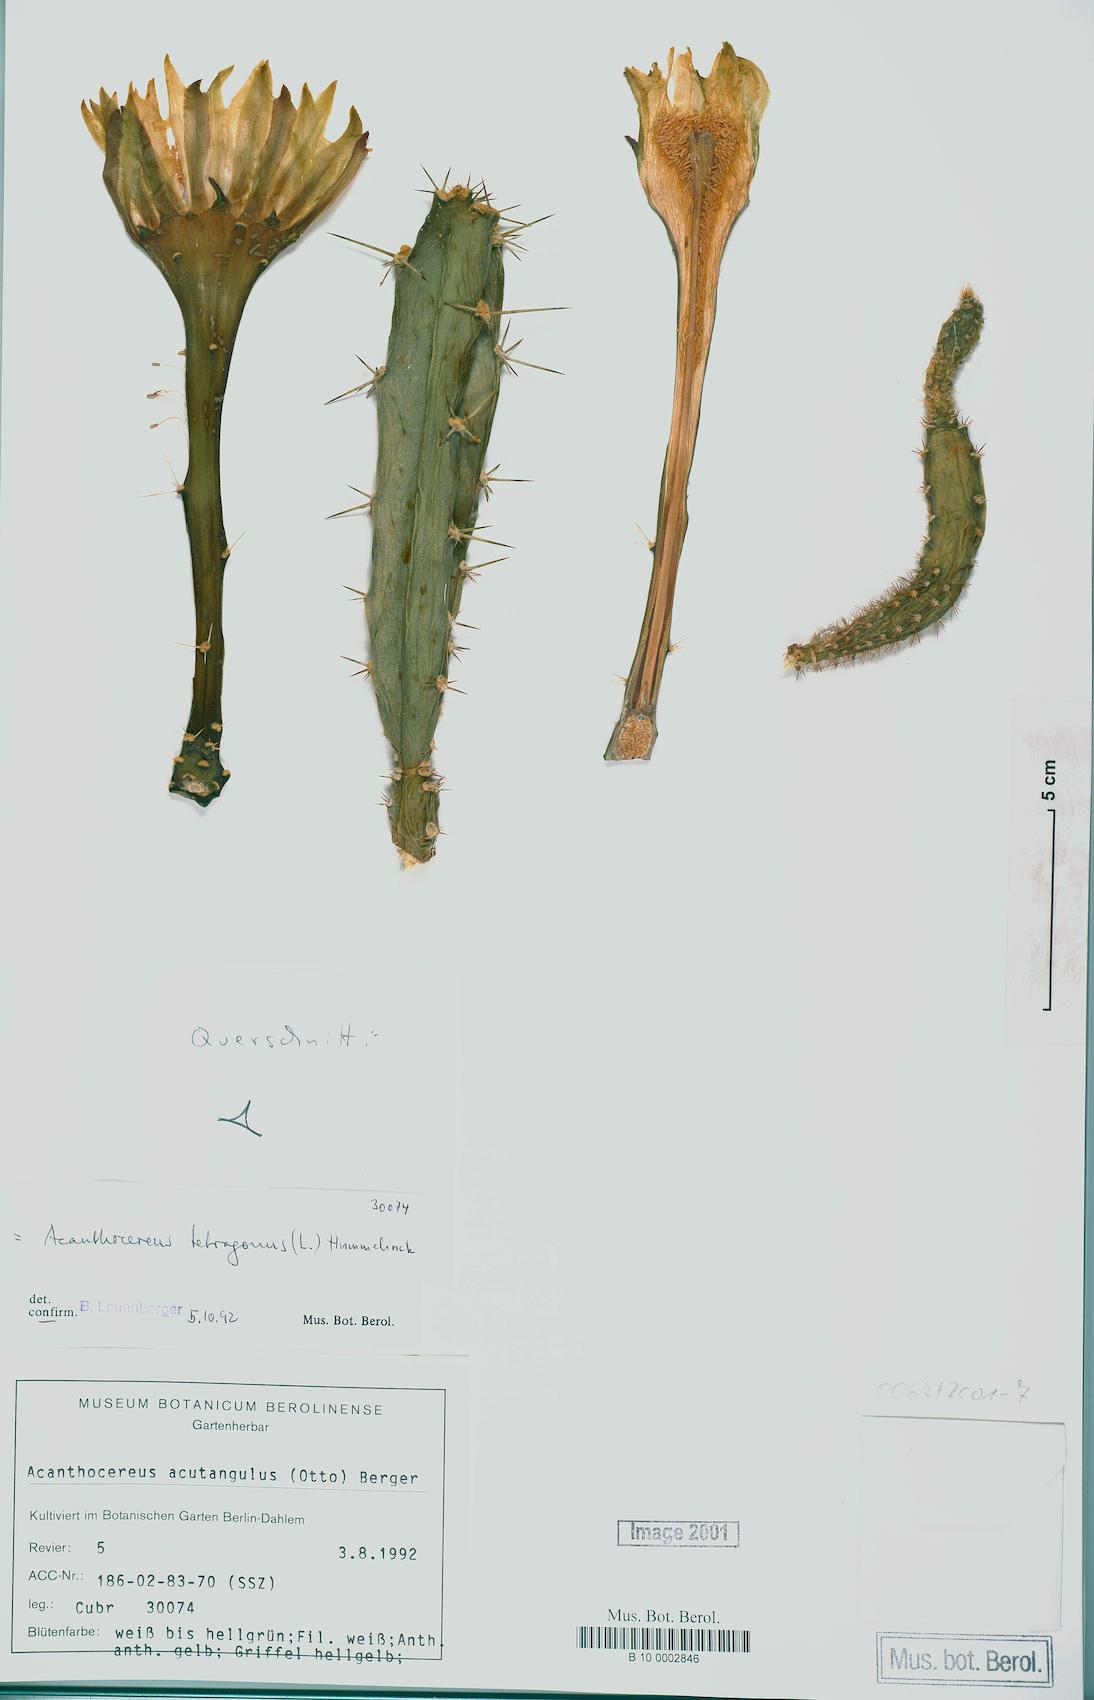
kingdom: Plantae
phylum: Tracheophyta
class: Magnoliopsida
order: Caryophyllales
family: Cactaceae
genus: Acanthocereus
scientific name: Acanthocereus tetragonus
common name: Triangle cactus
